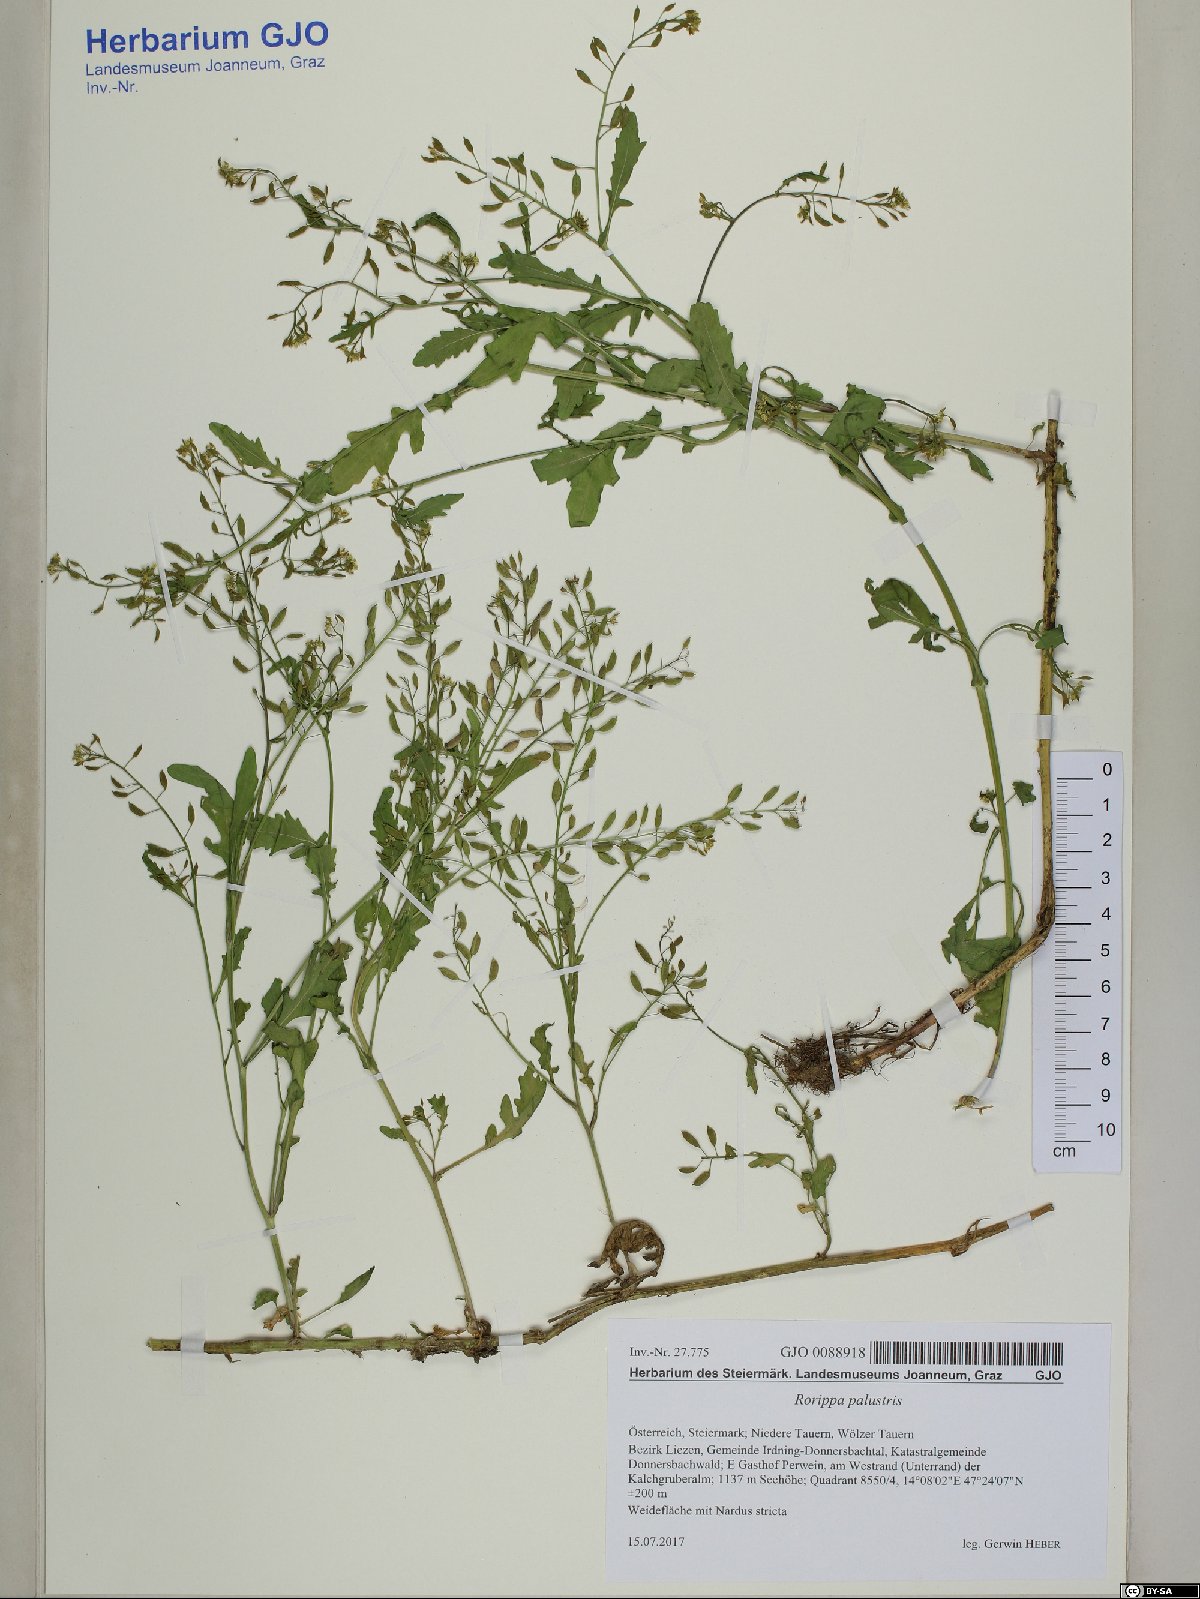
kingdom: Plantae
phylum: Tracheophyta
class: Magnoliopsida
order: Brassicales
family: Brassicaceae
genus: Rorippa
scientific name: Rorippa palustris
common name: Marsh yellow-cress
